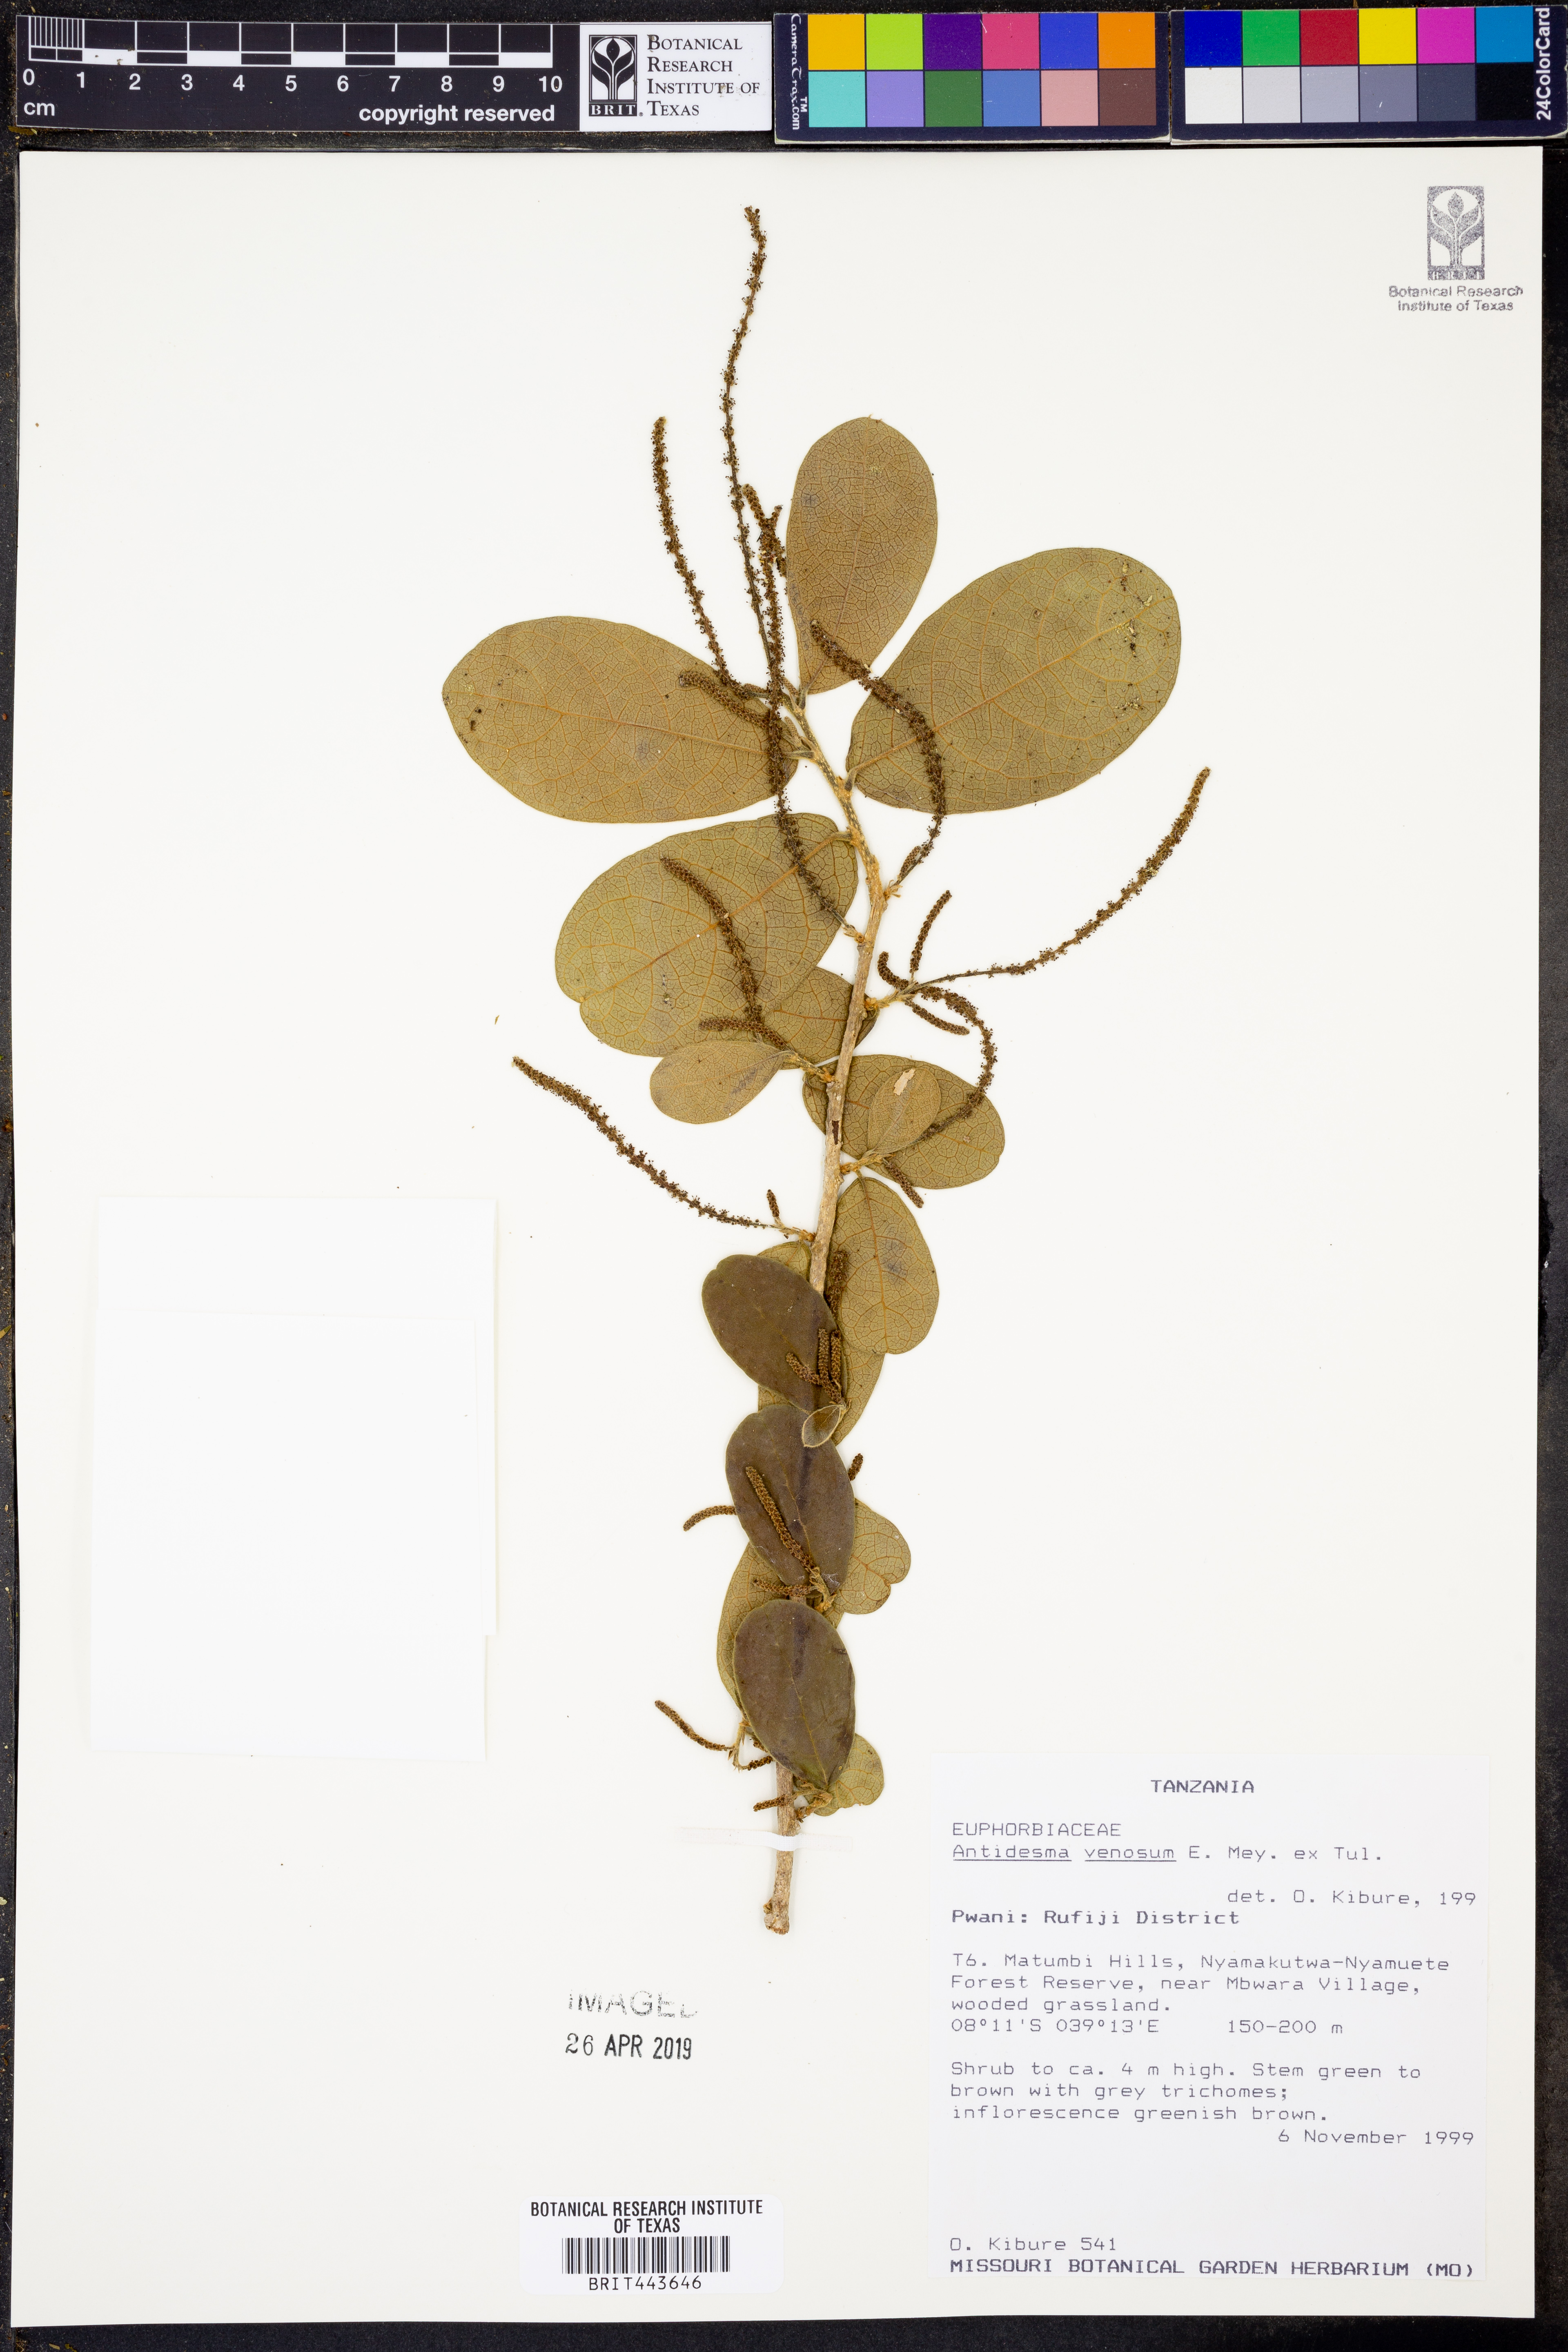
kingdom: Plantae
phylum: Tracheophyta
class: Magnoliopsida
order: Malpighiales
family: Phyllanthaceae
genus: Antidesma
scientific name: Antidesma venosum
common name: Tassel-berry
